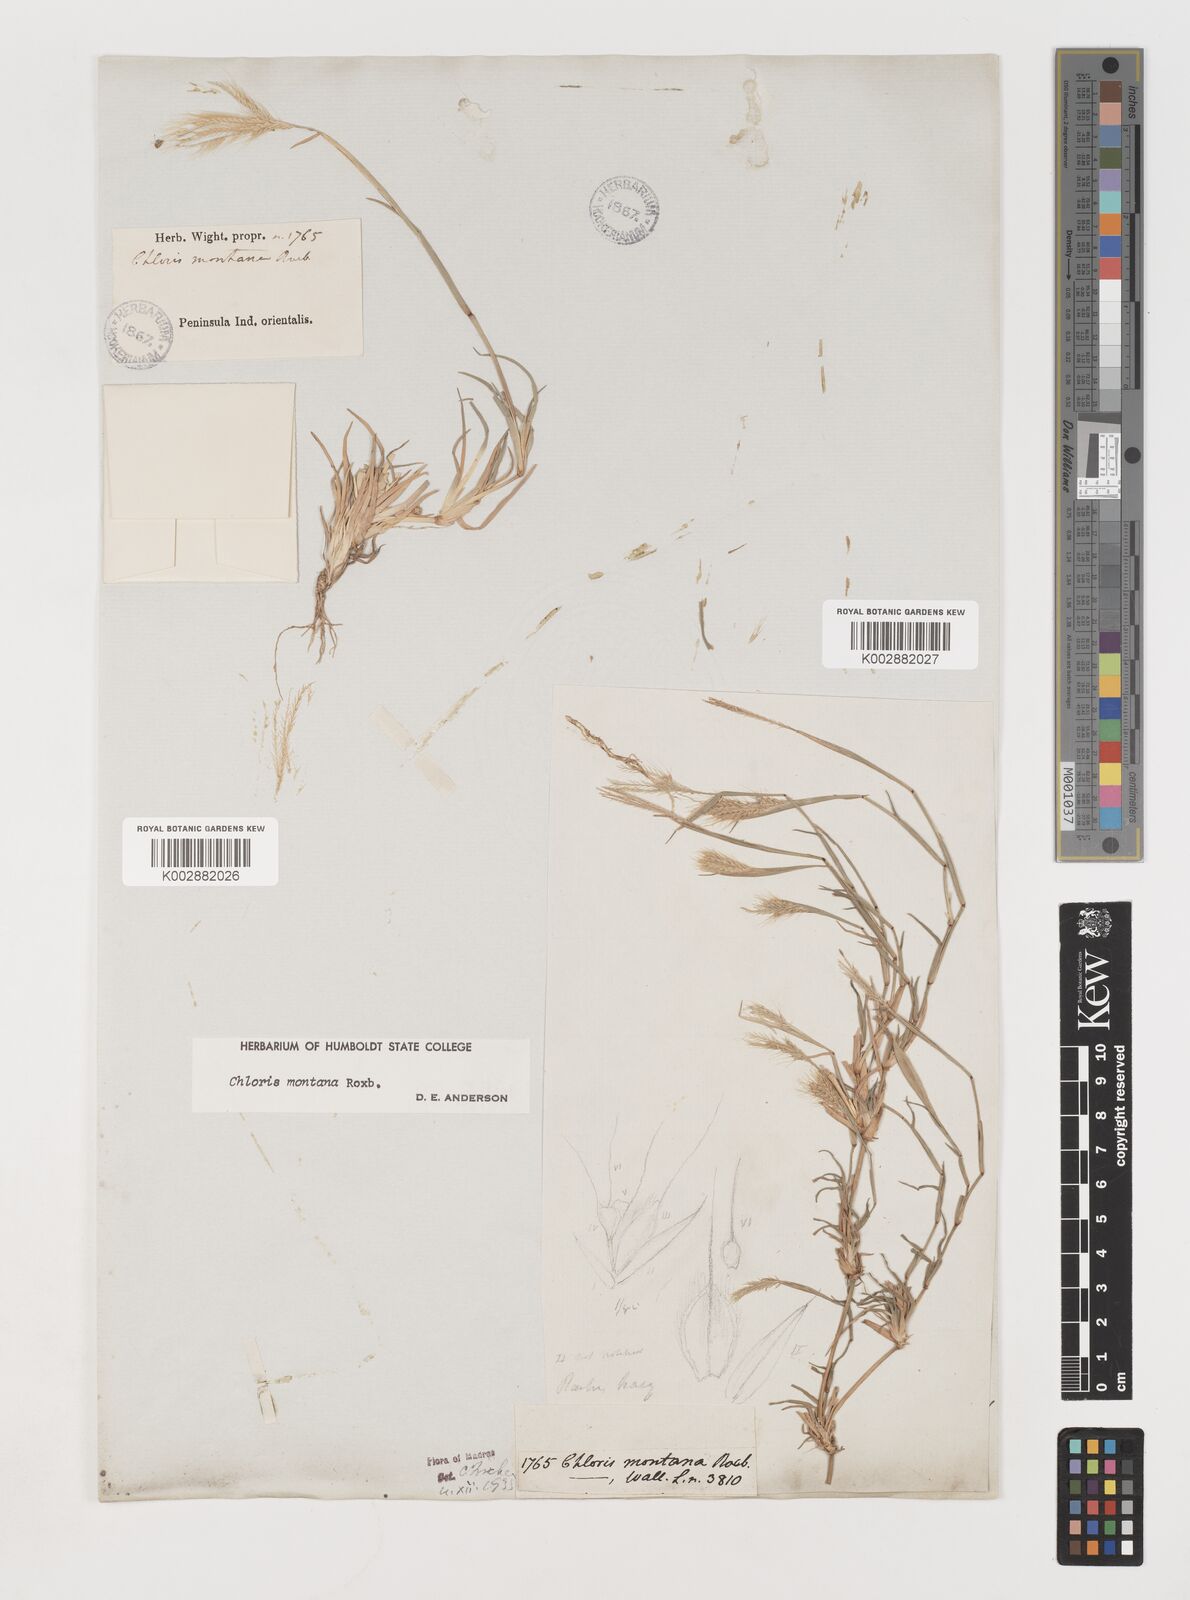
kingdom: Plantae
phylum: Tracheophyta
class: Liliopsida
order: Poales
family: Poaceae
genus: Chloris
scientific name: Chloris montana
